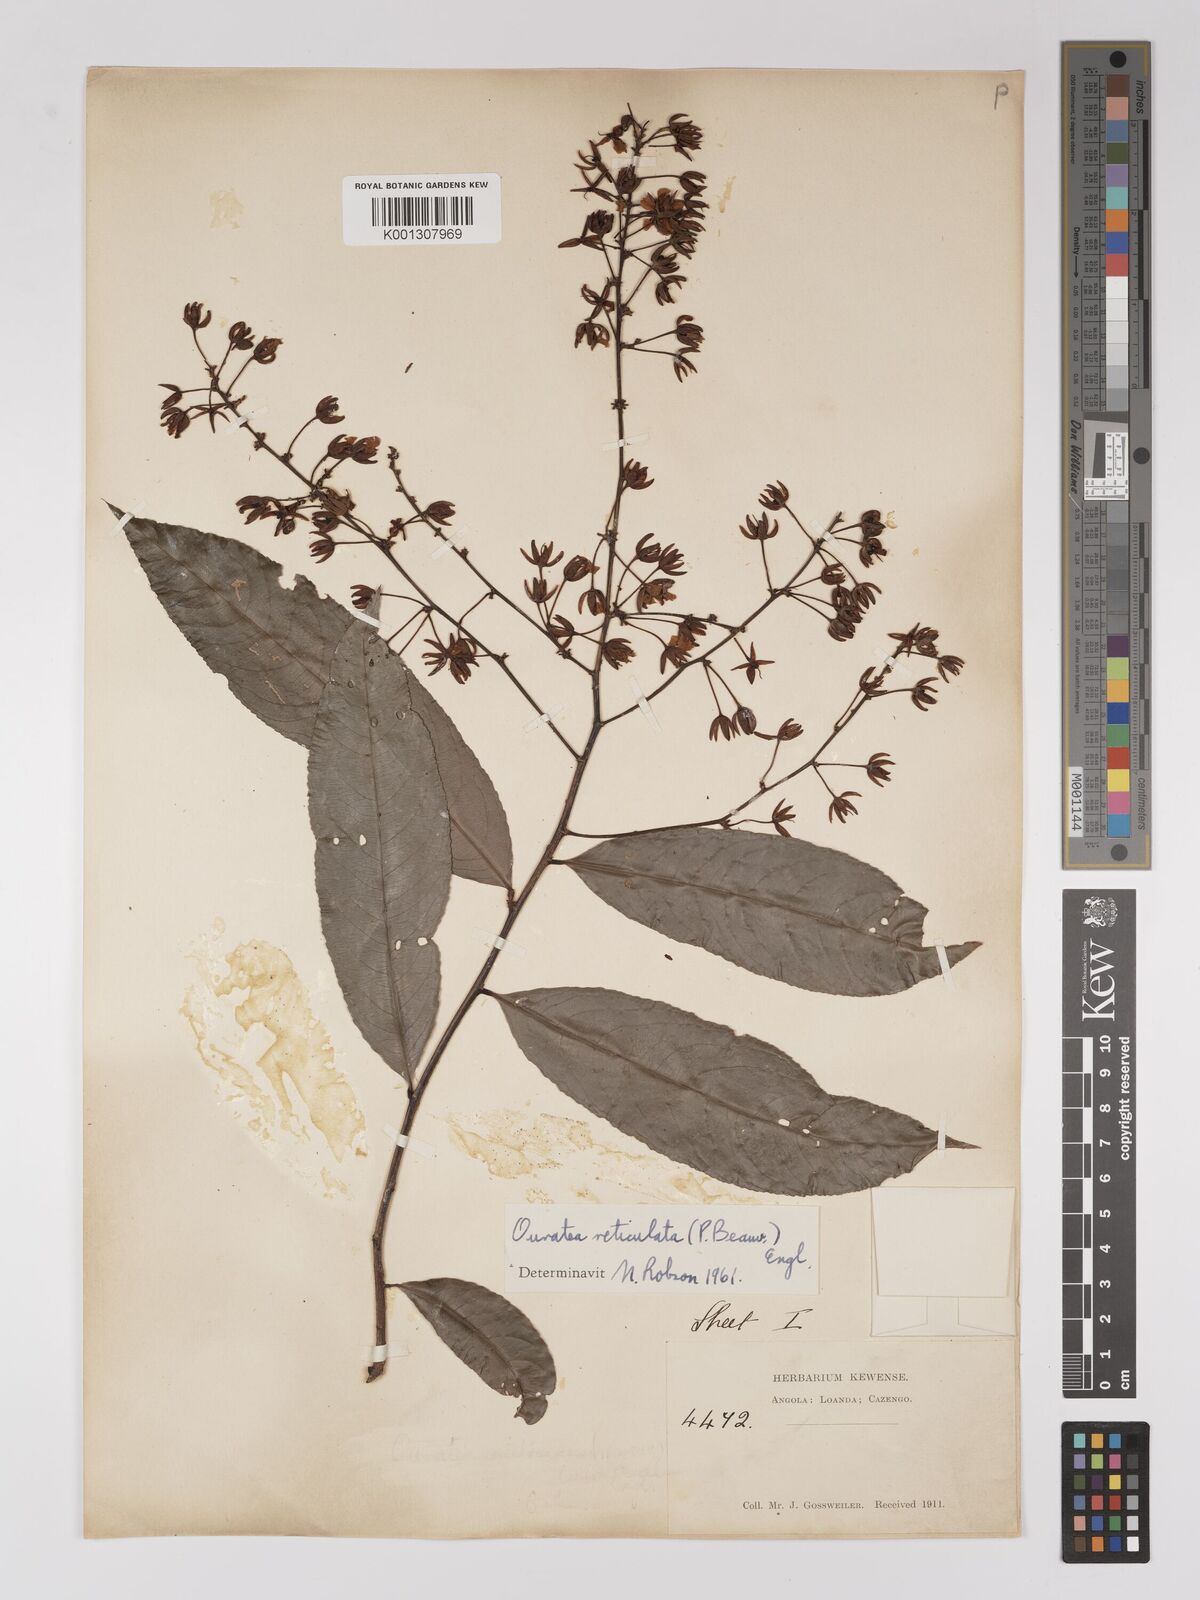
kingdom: Plantae
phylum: Tracheophyta
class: Magnoliopsida
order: Malpighiales
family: Ochnaceae
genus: Campylospermum
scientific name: Campylospermum reticulatum
